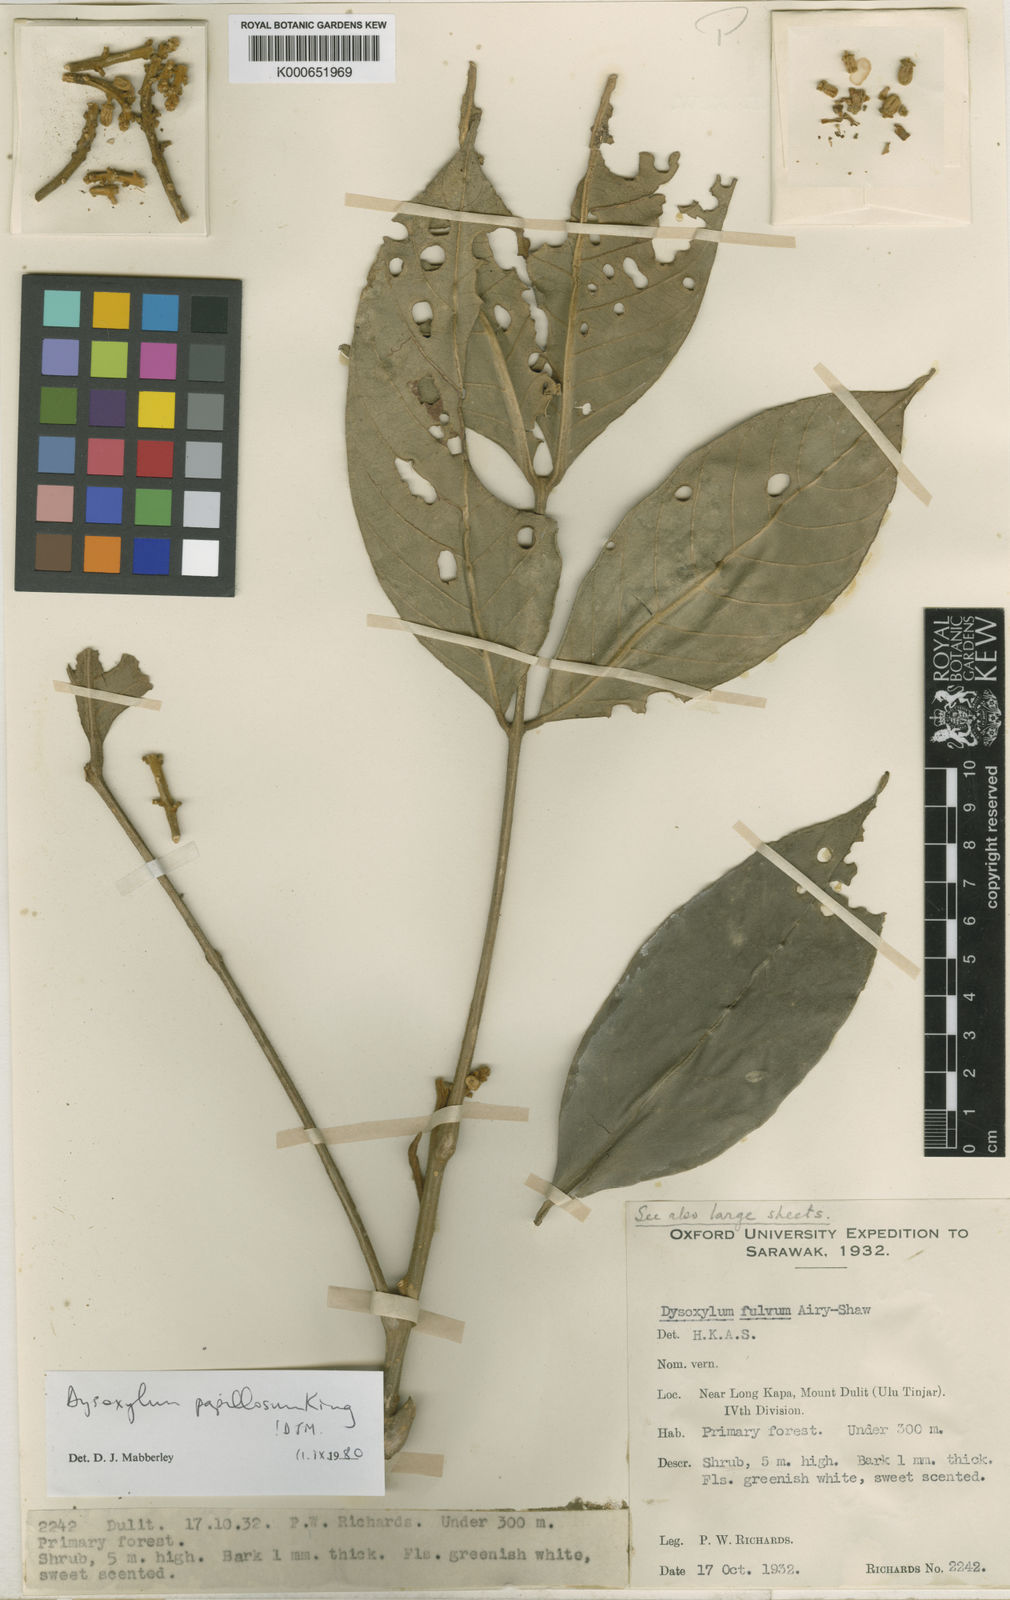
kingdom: Plantae
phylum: Tracheophyta
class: Magnoliopsida
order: Sapindales
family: Meliaceae
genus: Dysoxylum
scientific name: Dysoxylum papillosum
